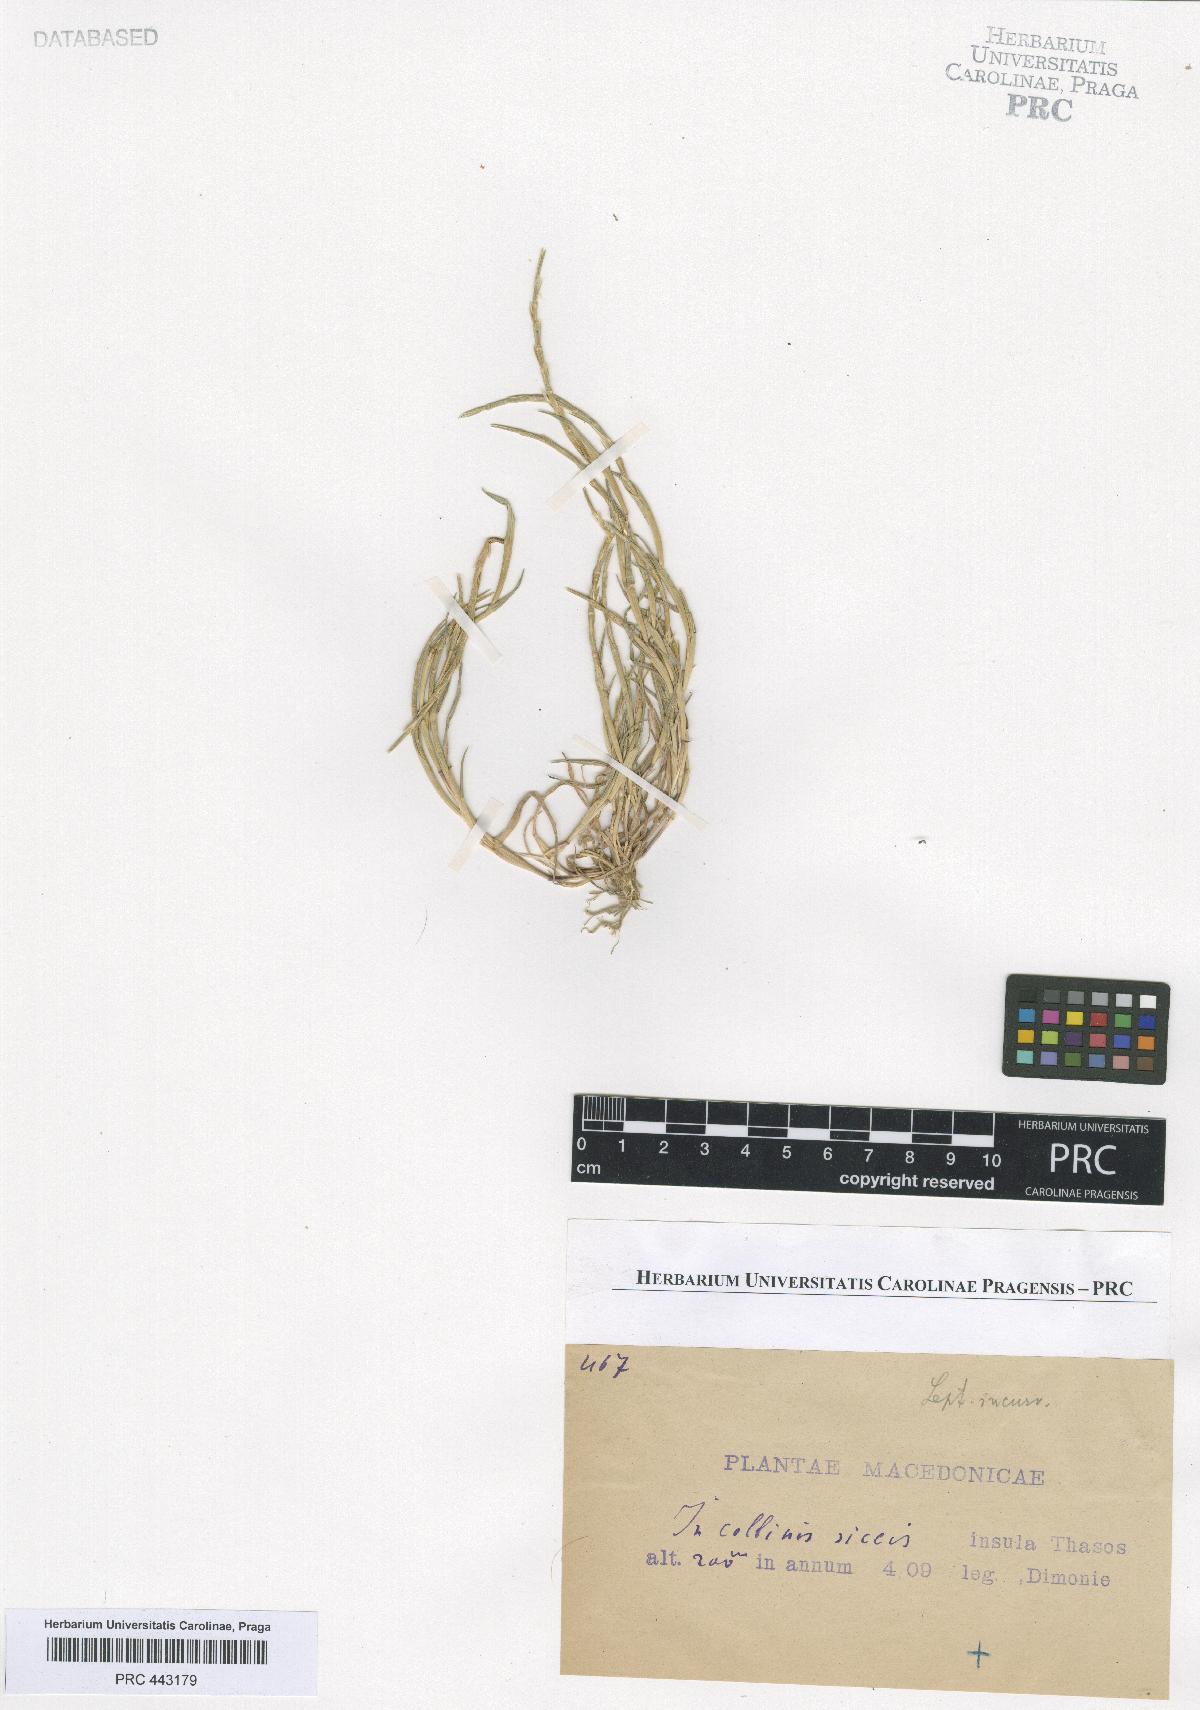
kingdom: Plantae
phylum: Tracheophyta
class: Liliopsida
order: Poales
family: Poaceae
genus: Parapholis
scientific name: Parapholis incurva
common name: Curved sicklegrass
